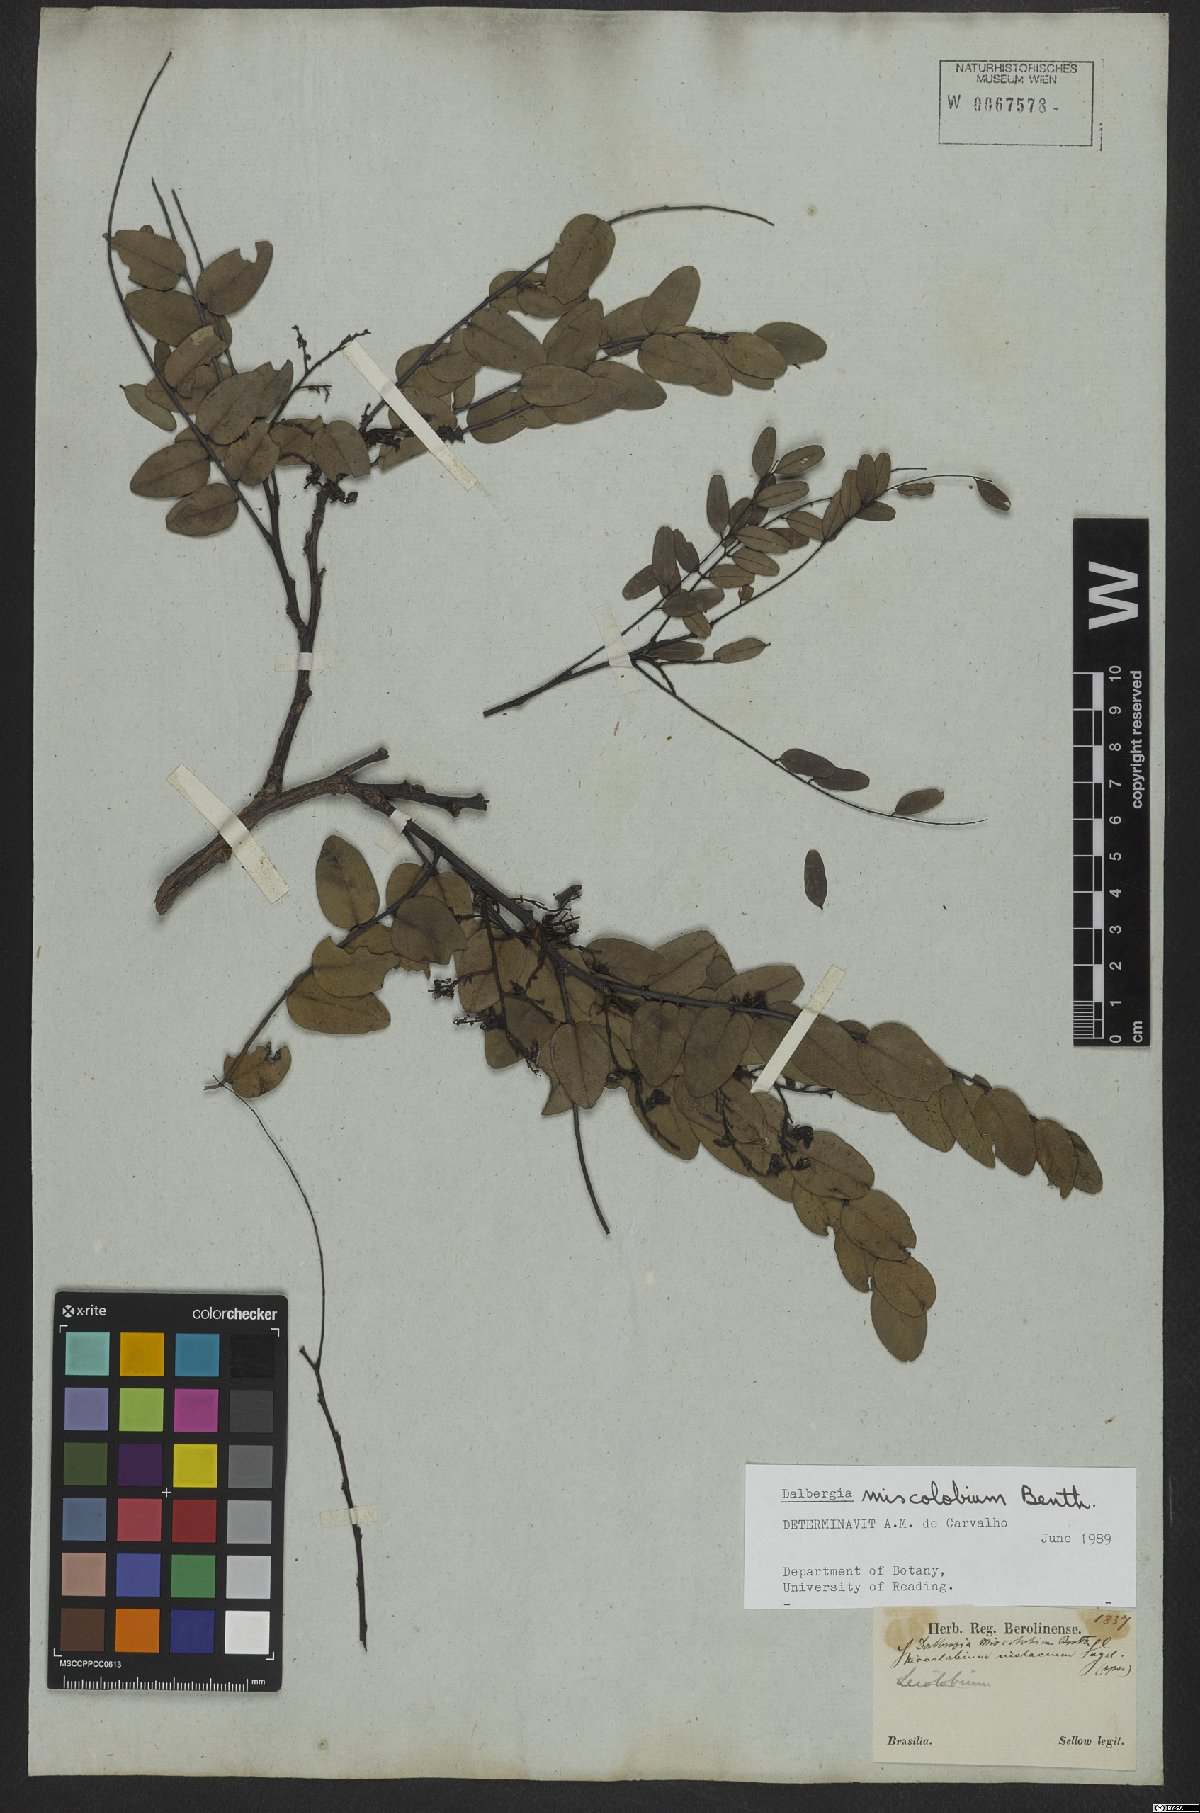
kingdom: Plantae
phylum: Tracheophyta
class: Magnoliopsida
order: Fabales
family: Fabaceae
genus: Dalbergia
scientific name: Dalbergia miscolobium
